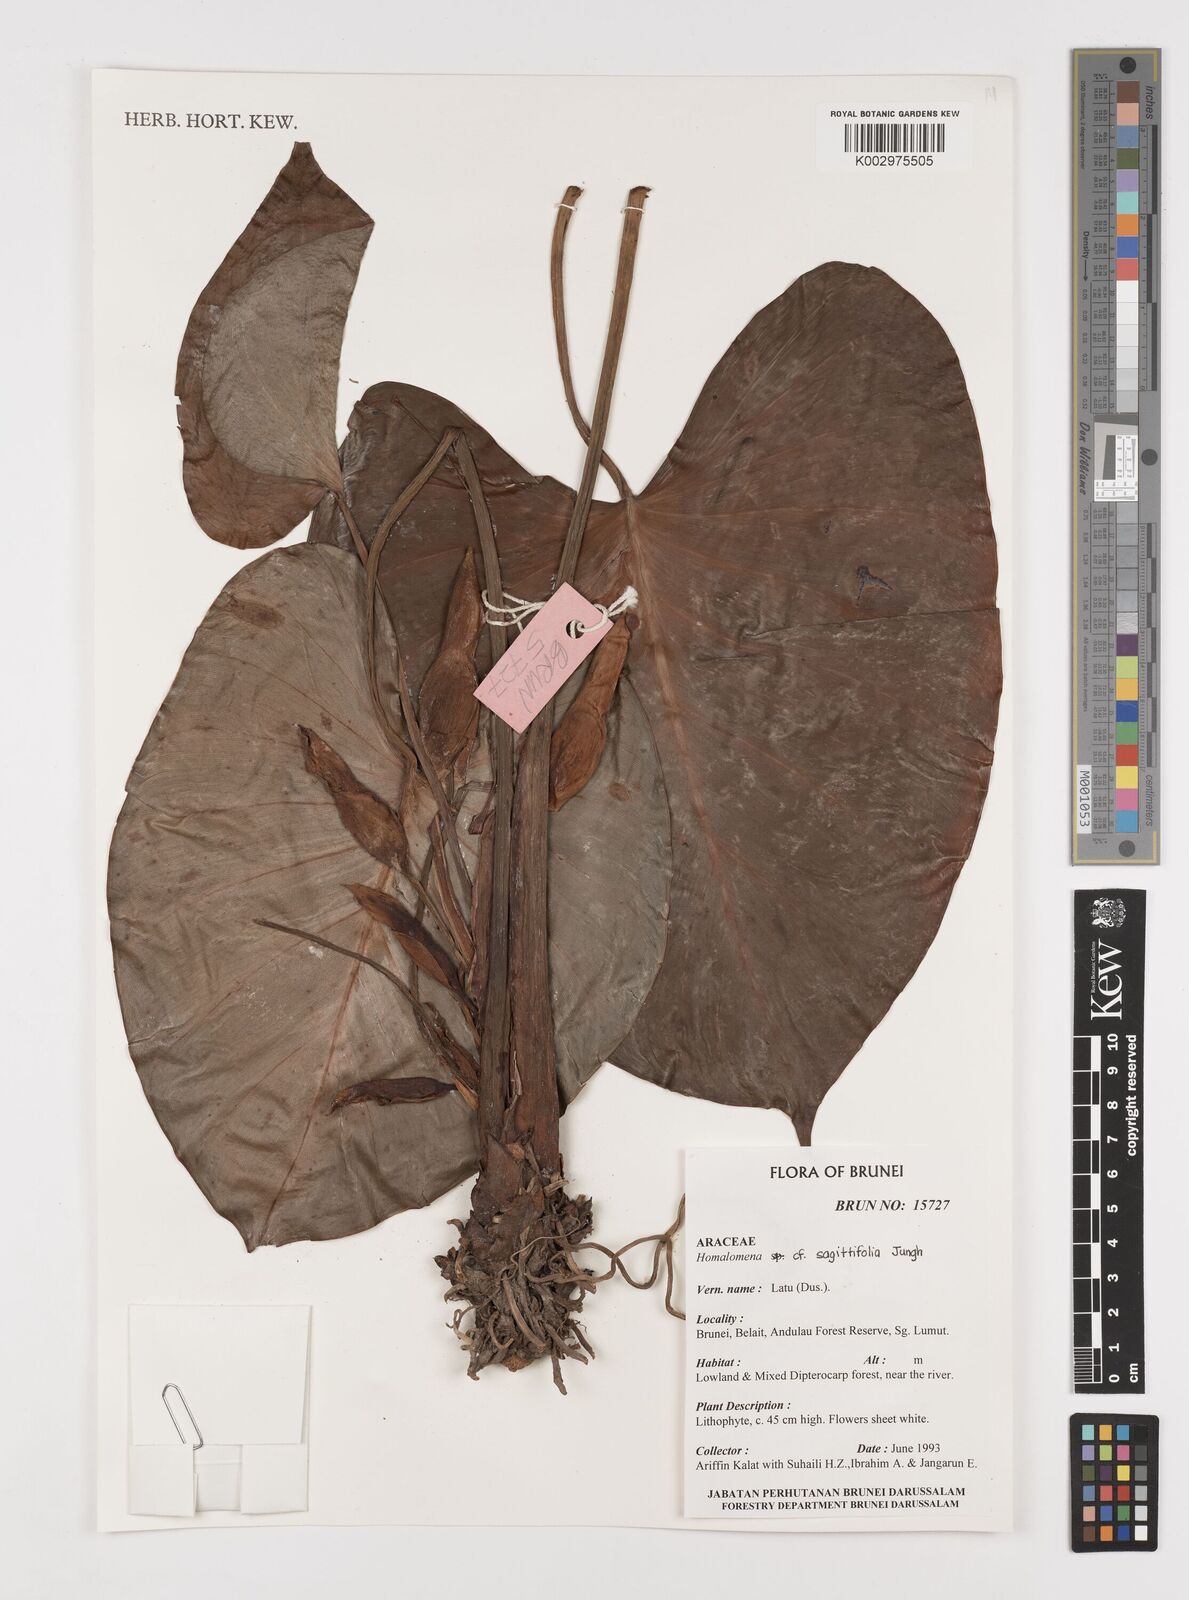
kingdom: Plantae
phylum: Tracheophyta
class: Liliopsida
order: Alismatales
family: Araceae
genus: Homalomena
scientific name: Homalomena rostrata
